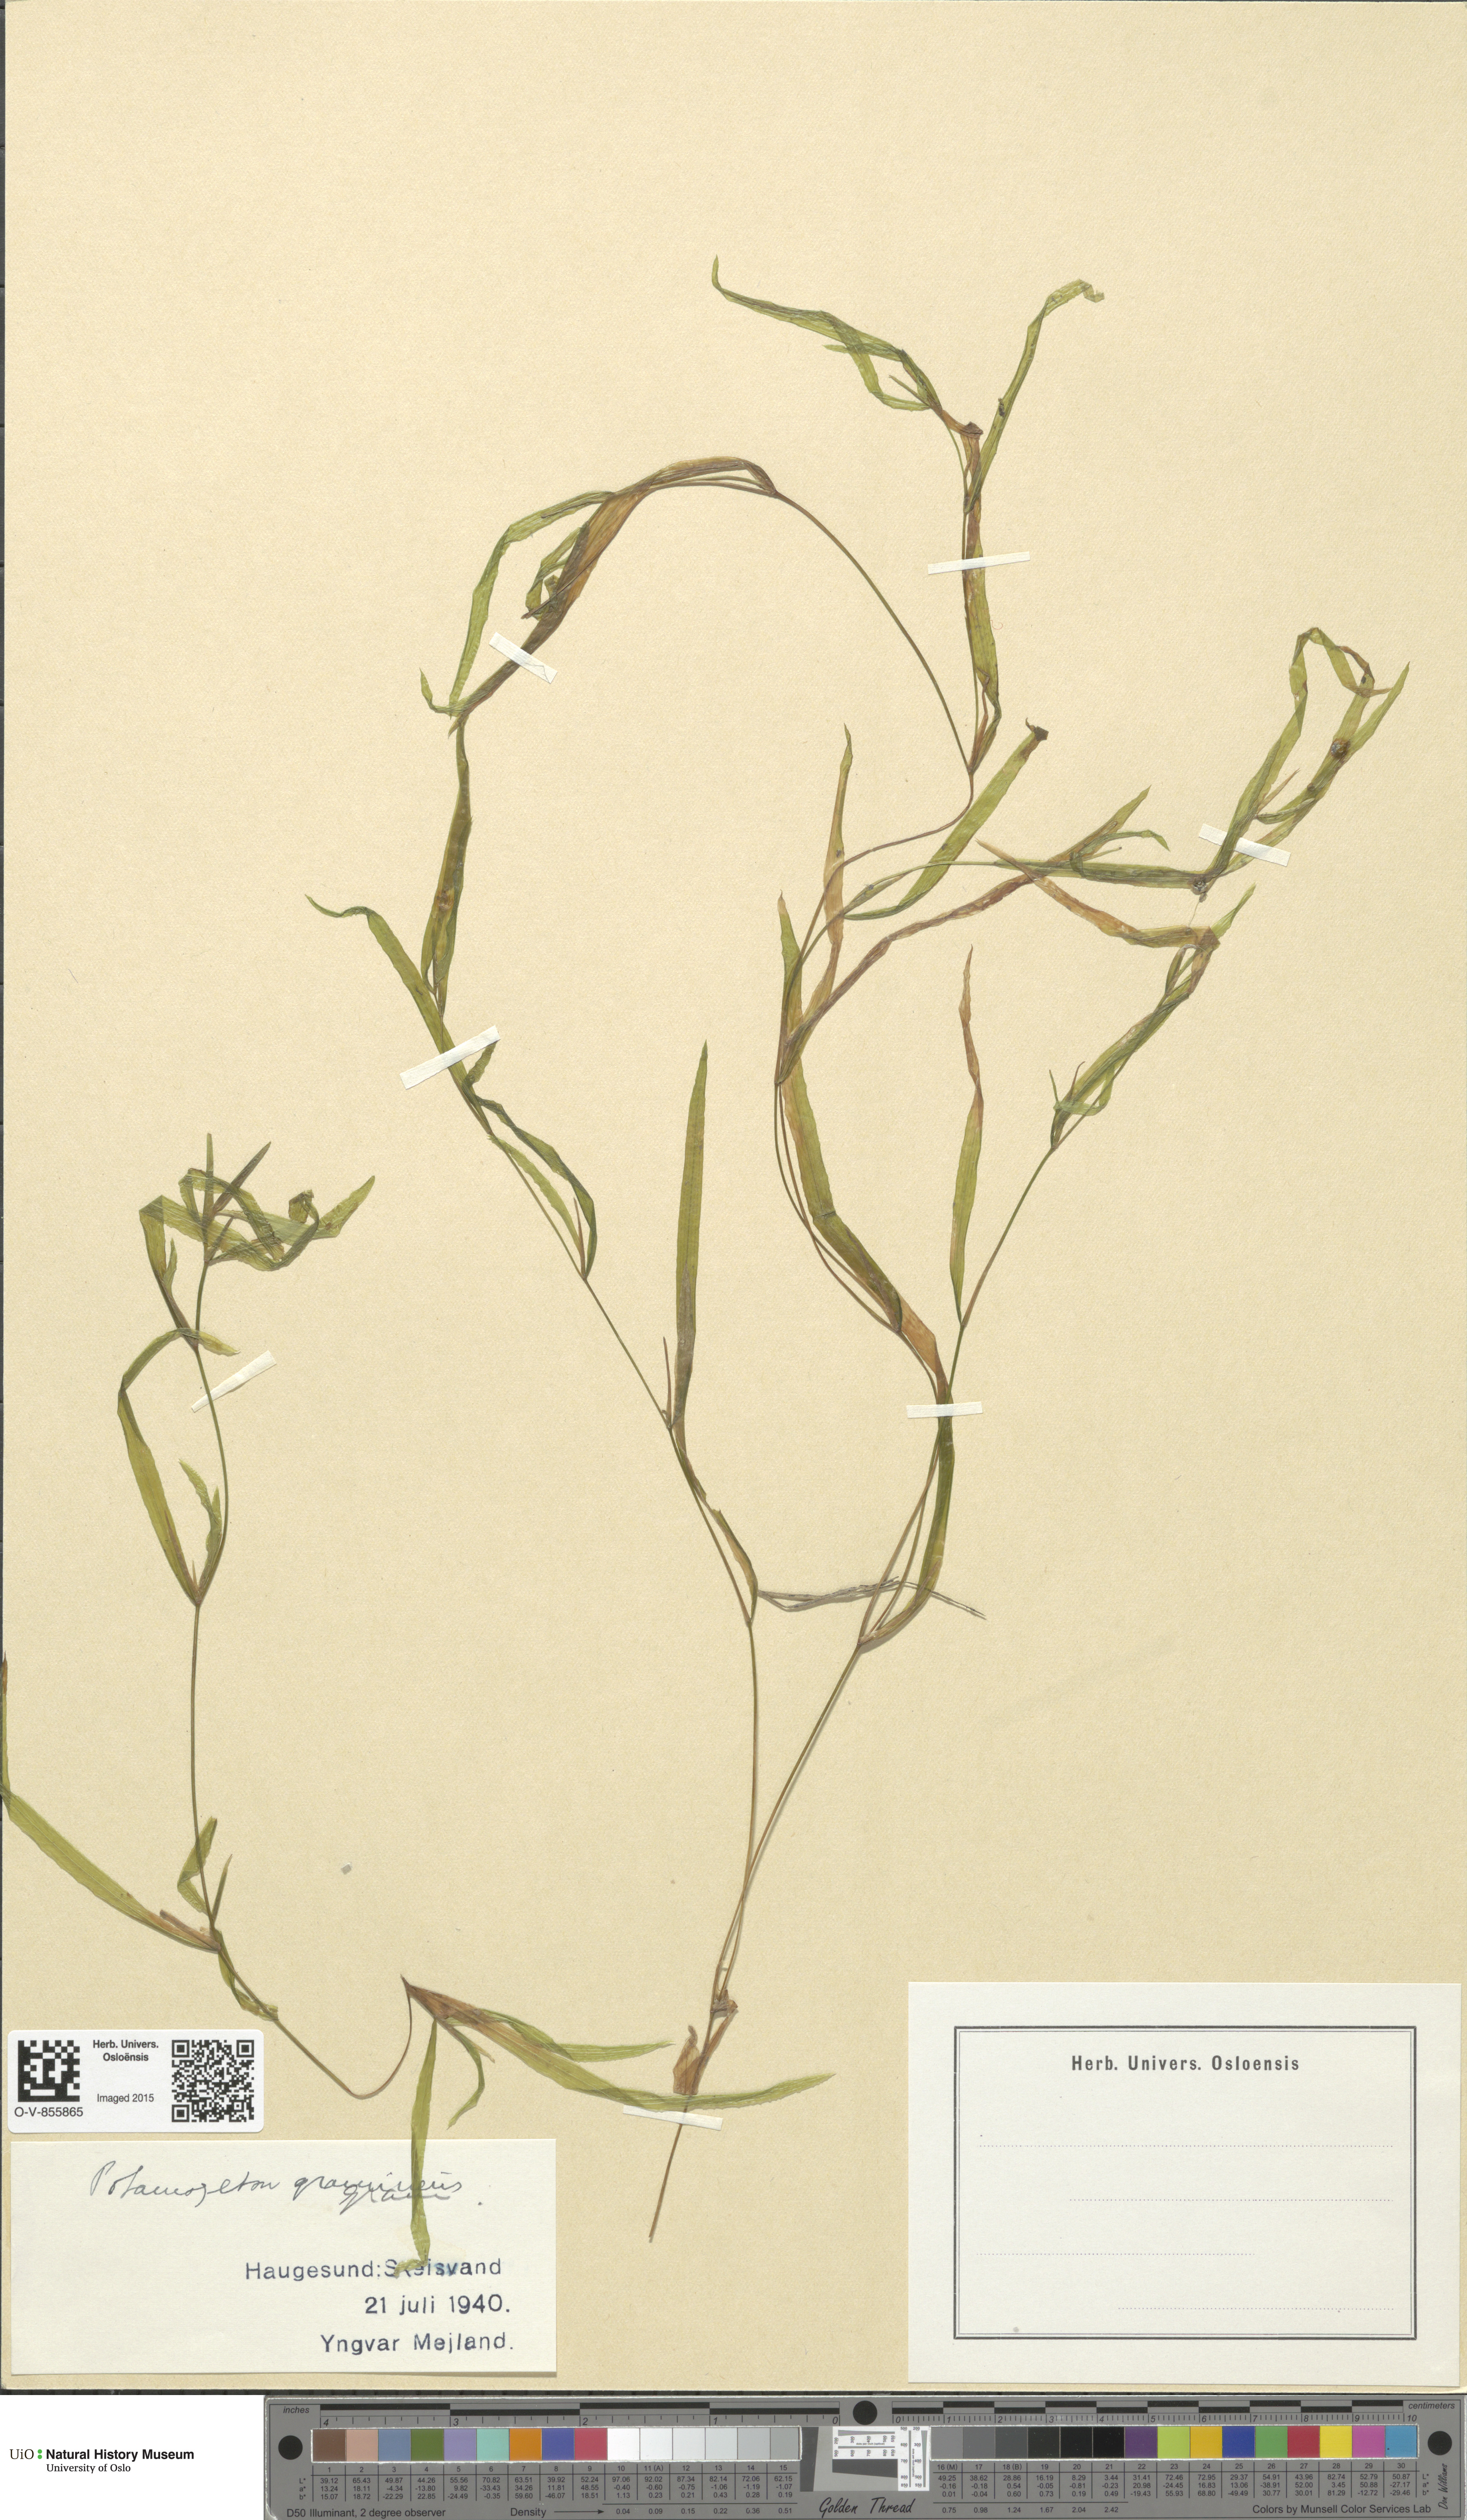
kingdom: Plantae
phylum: Tracheophyta
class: Liliopsida
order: Alismatales
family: Potamogetonaceae
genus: Potamogeton
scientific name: Potamogeton gramineus
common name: Various-leaved pondweed
